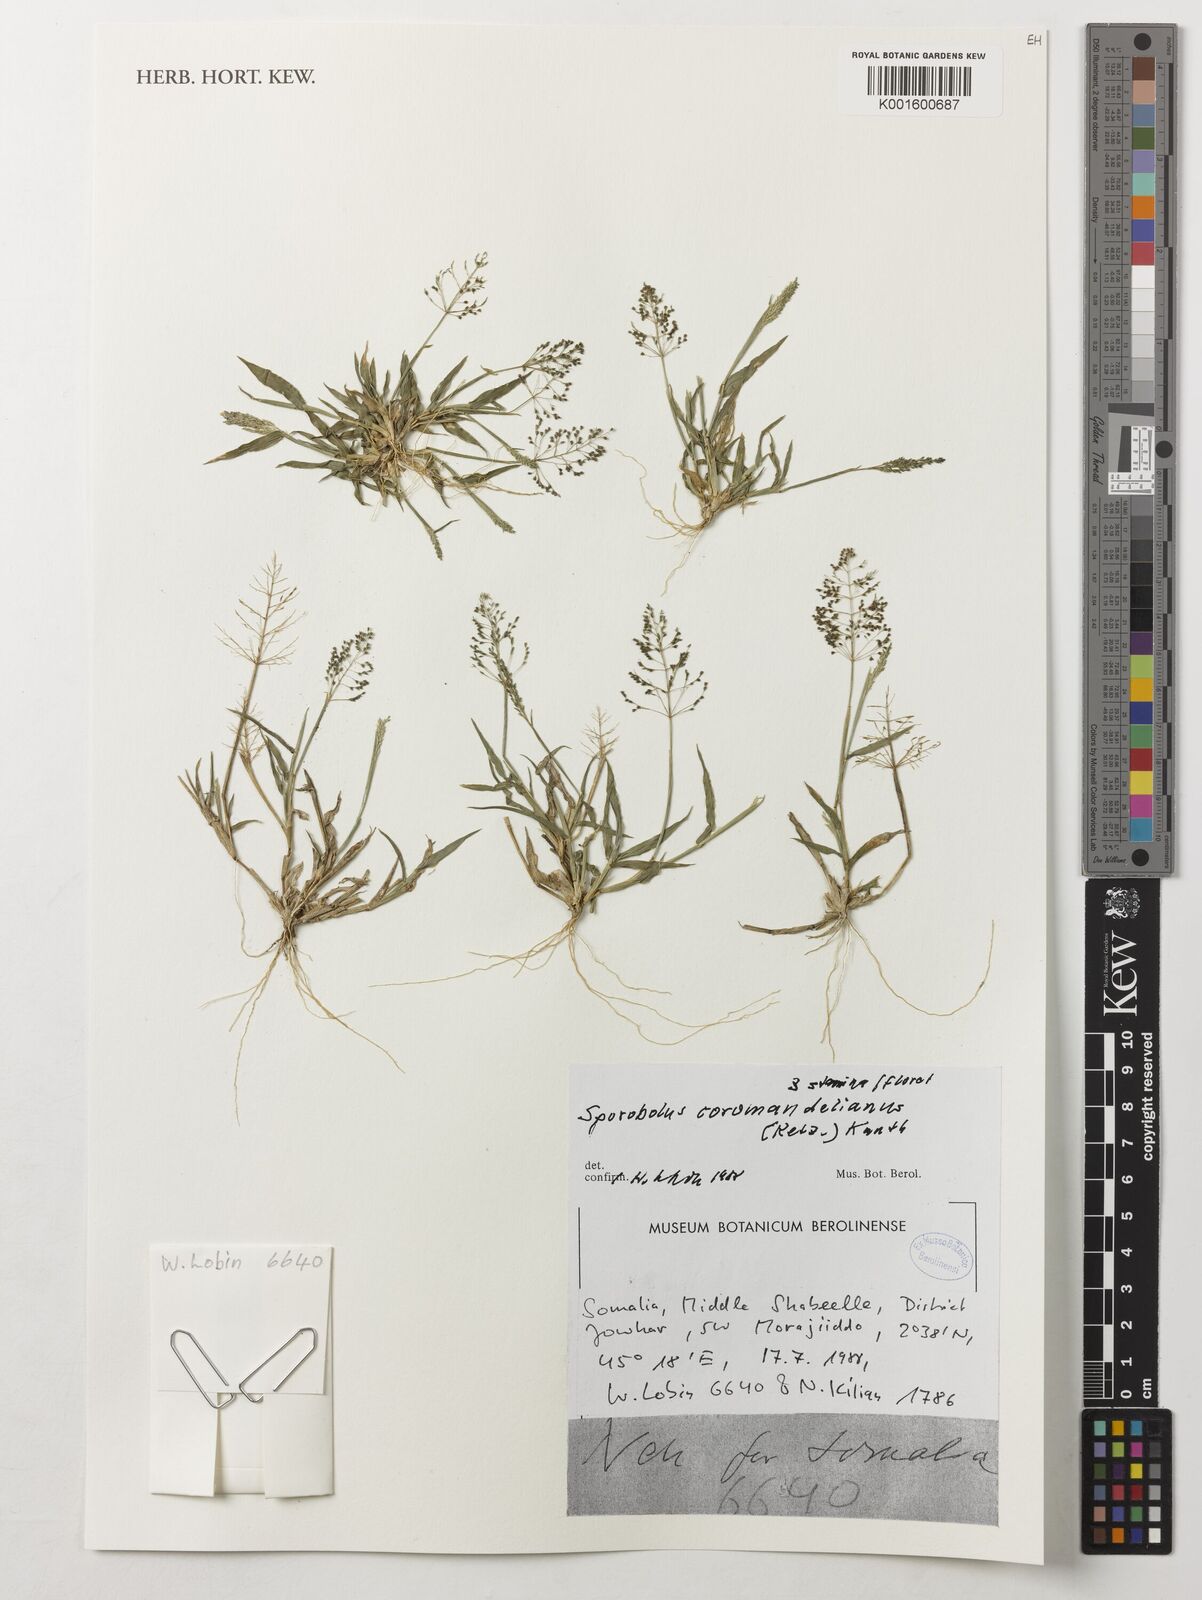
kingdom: Plantae
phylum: Tracheophyta
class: Liliopsida
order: Poales
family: Poaceae
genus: Sporobolus
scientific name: Sporobolus coromandelianus
